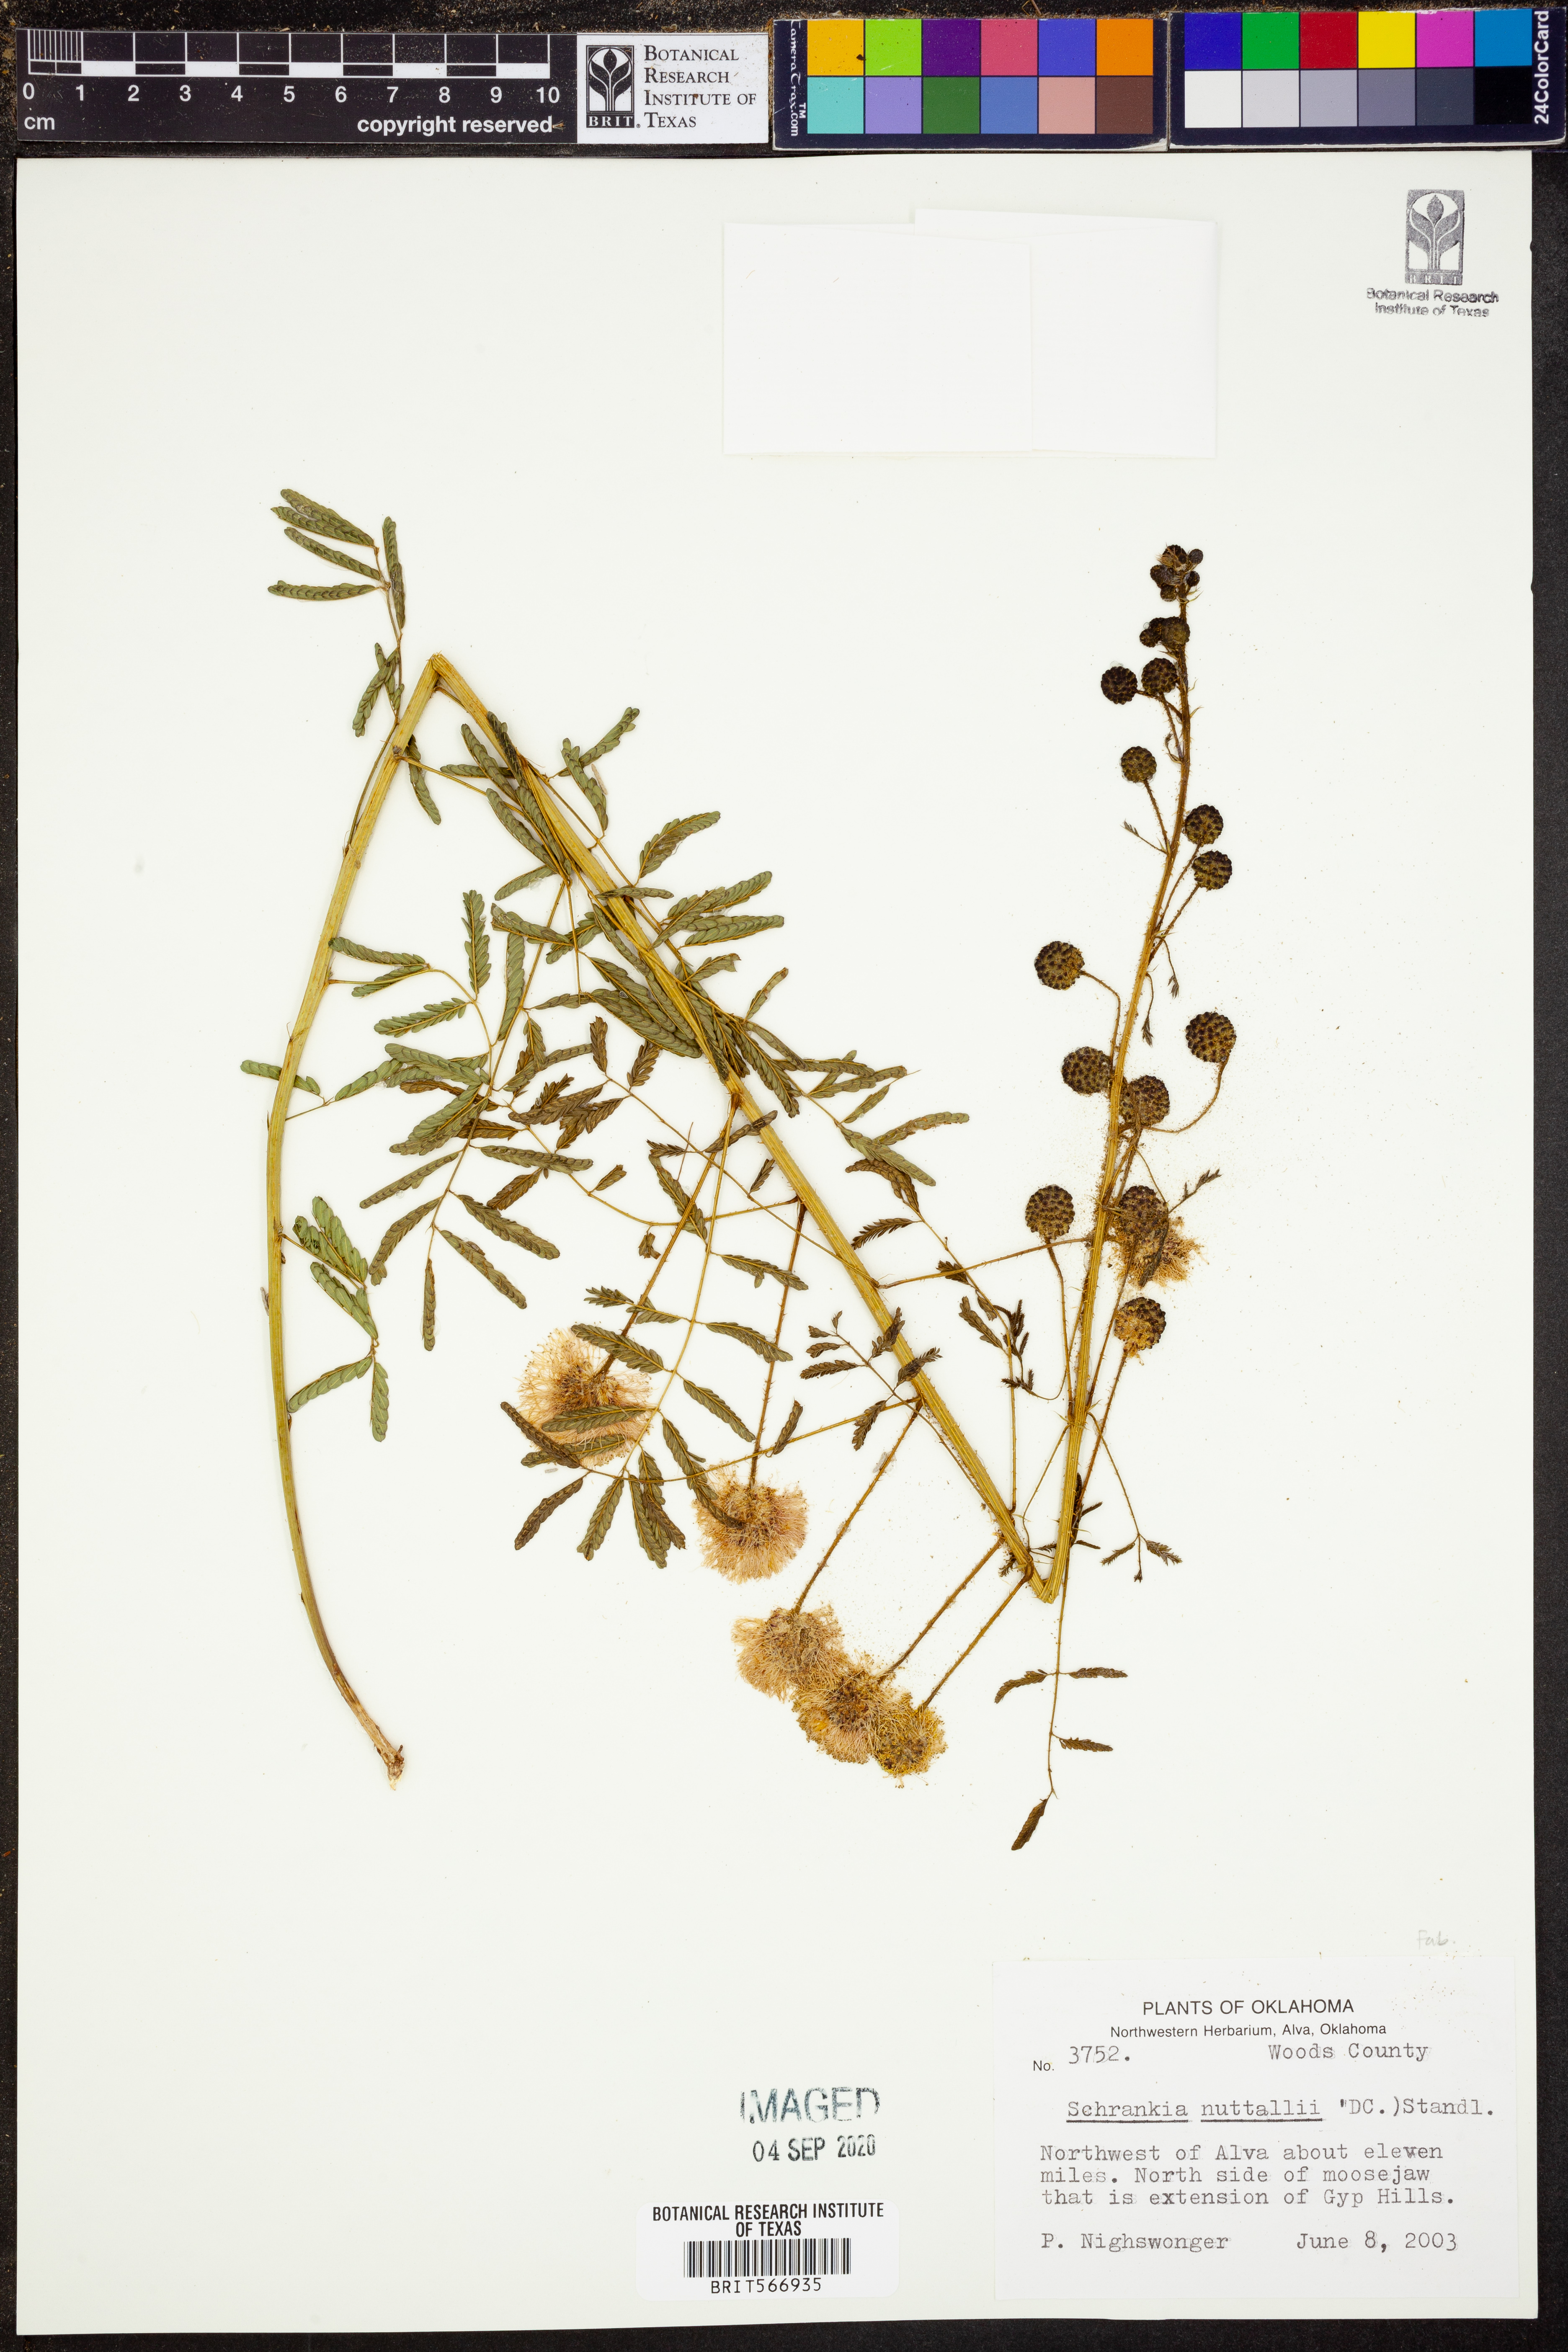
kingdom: Plantae
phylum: Tracheophyta
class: Magnoliopsida
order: Fabales
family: Fabaceae
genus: Mimosa
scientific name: Mimosa quadrivalvis
